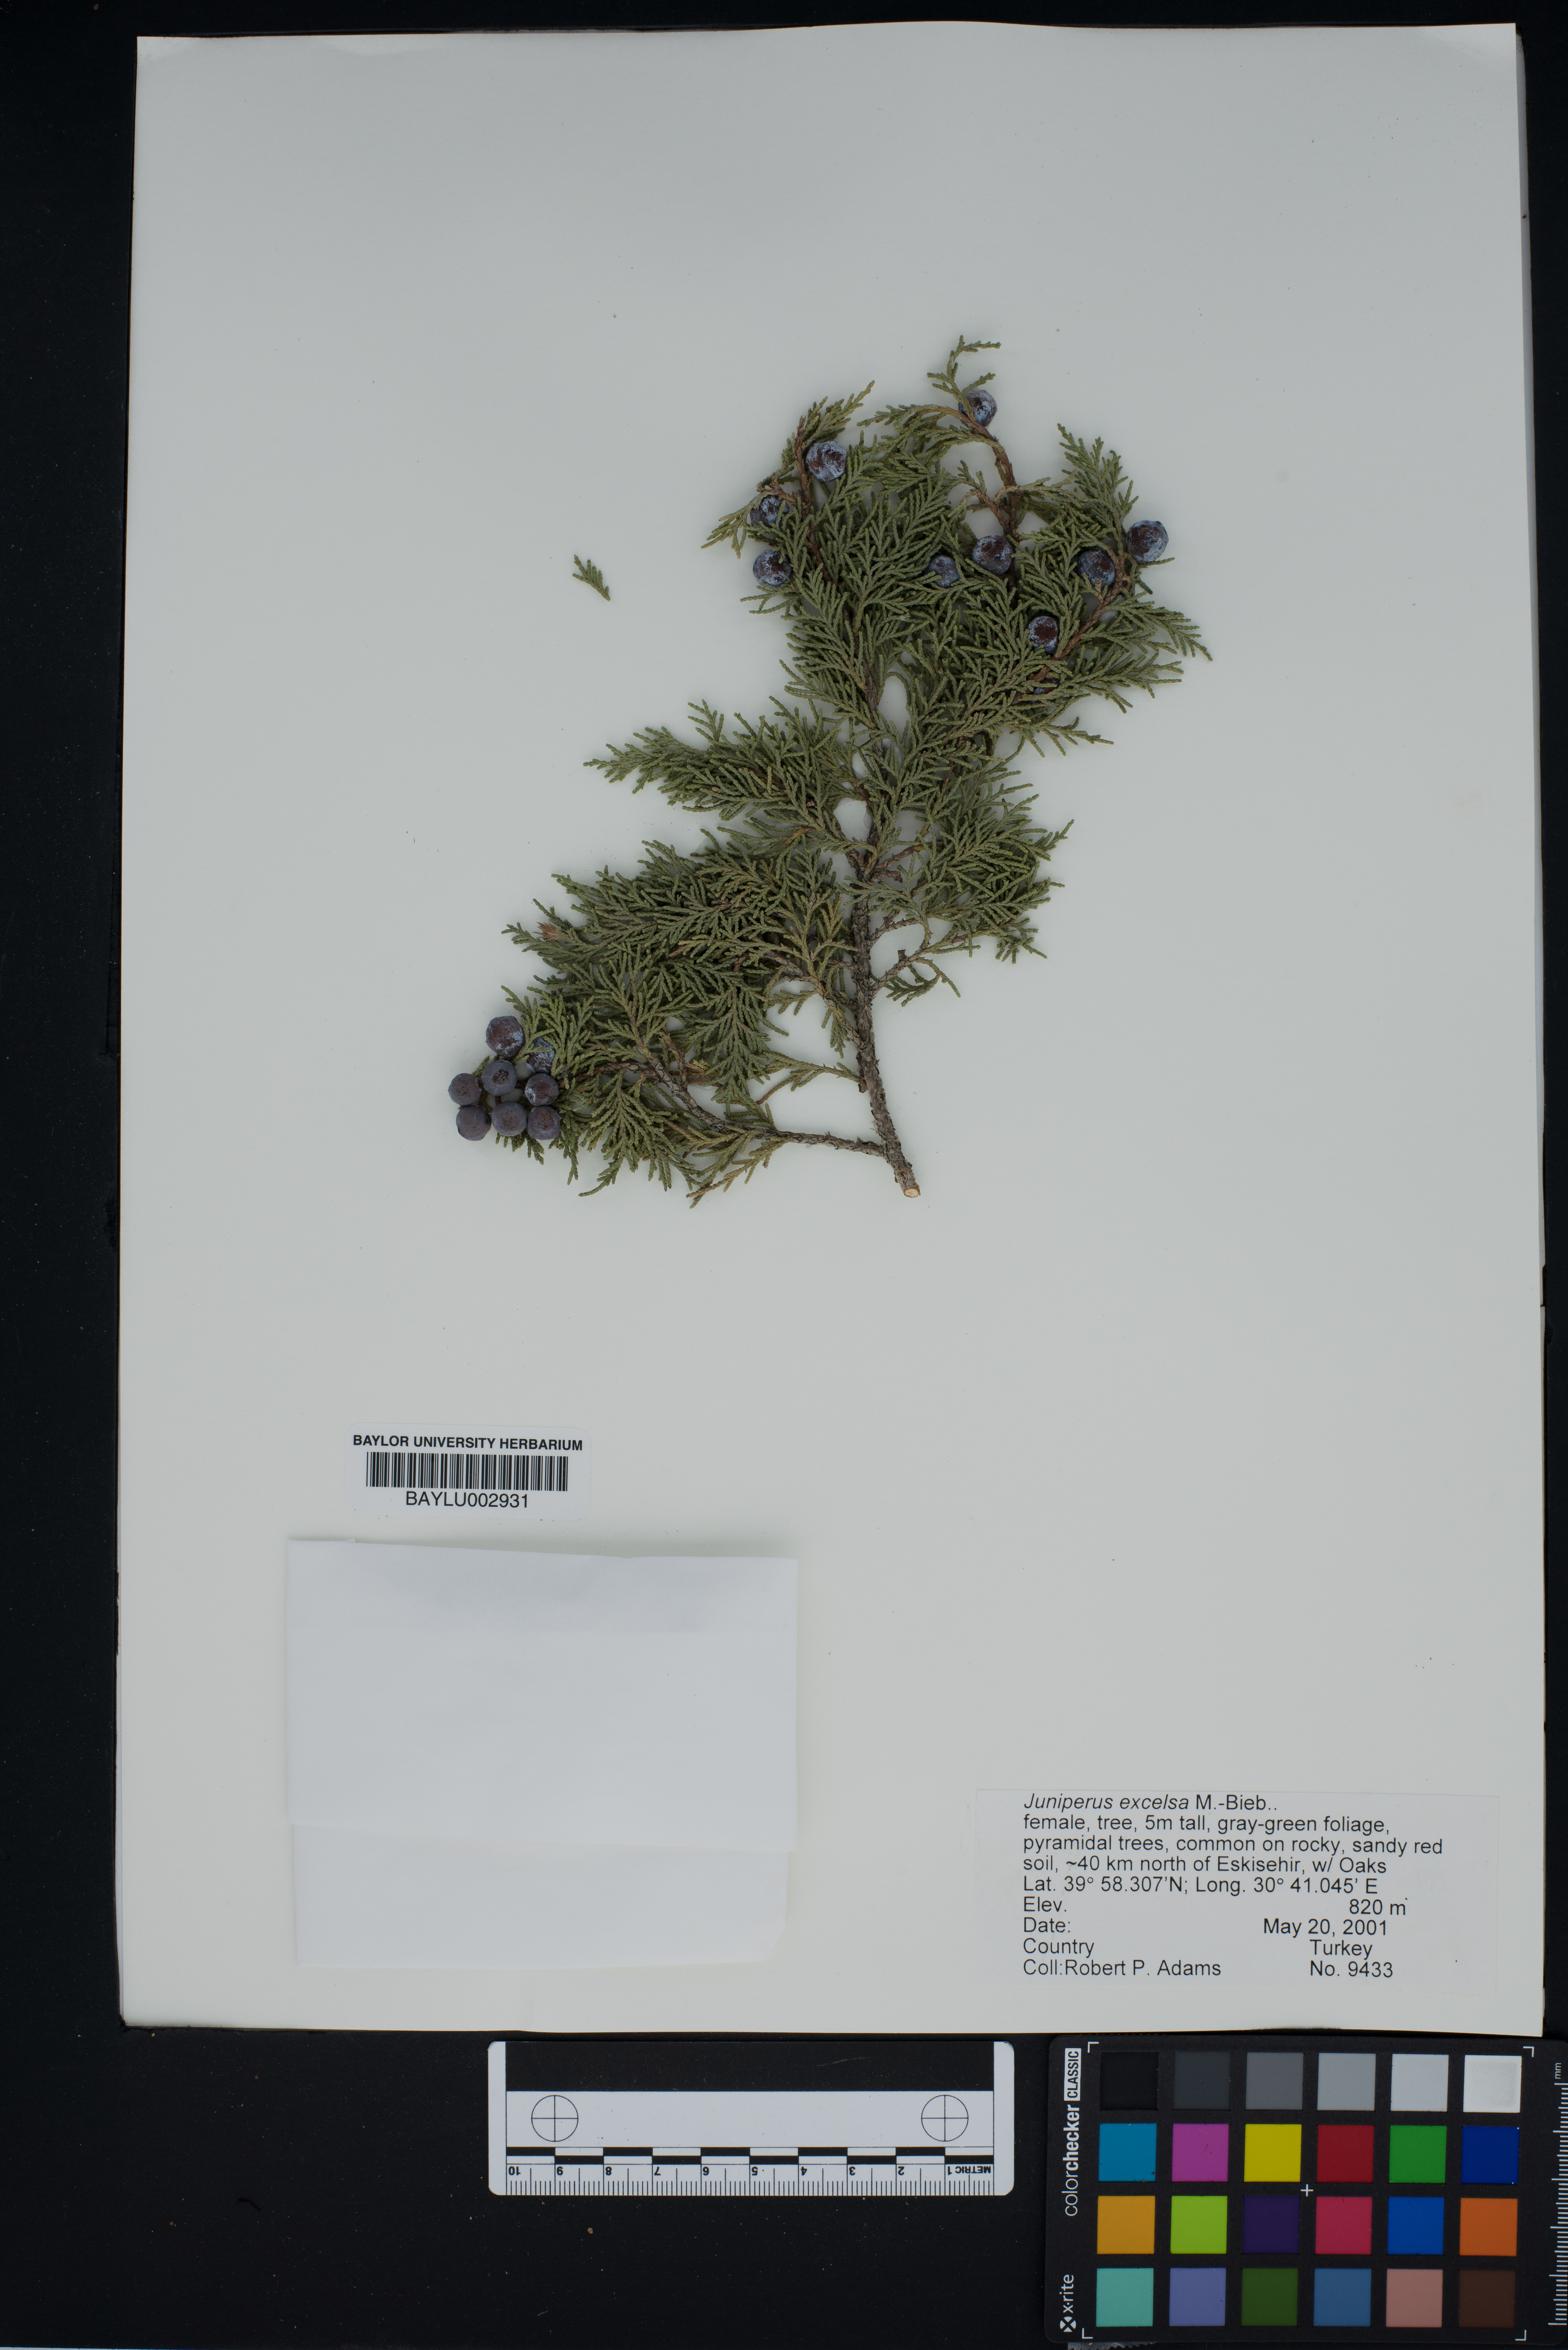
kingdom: Plantae
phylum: Tracheophyta
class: Pinopsida
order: Pinales
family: Cupressaceae
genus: Juniperus
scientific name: Juniperus excelsa
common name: Crimean juniper
